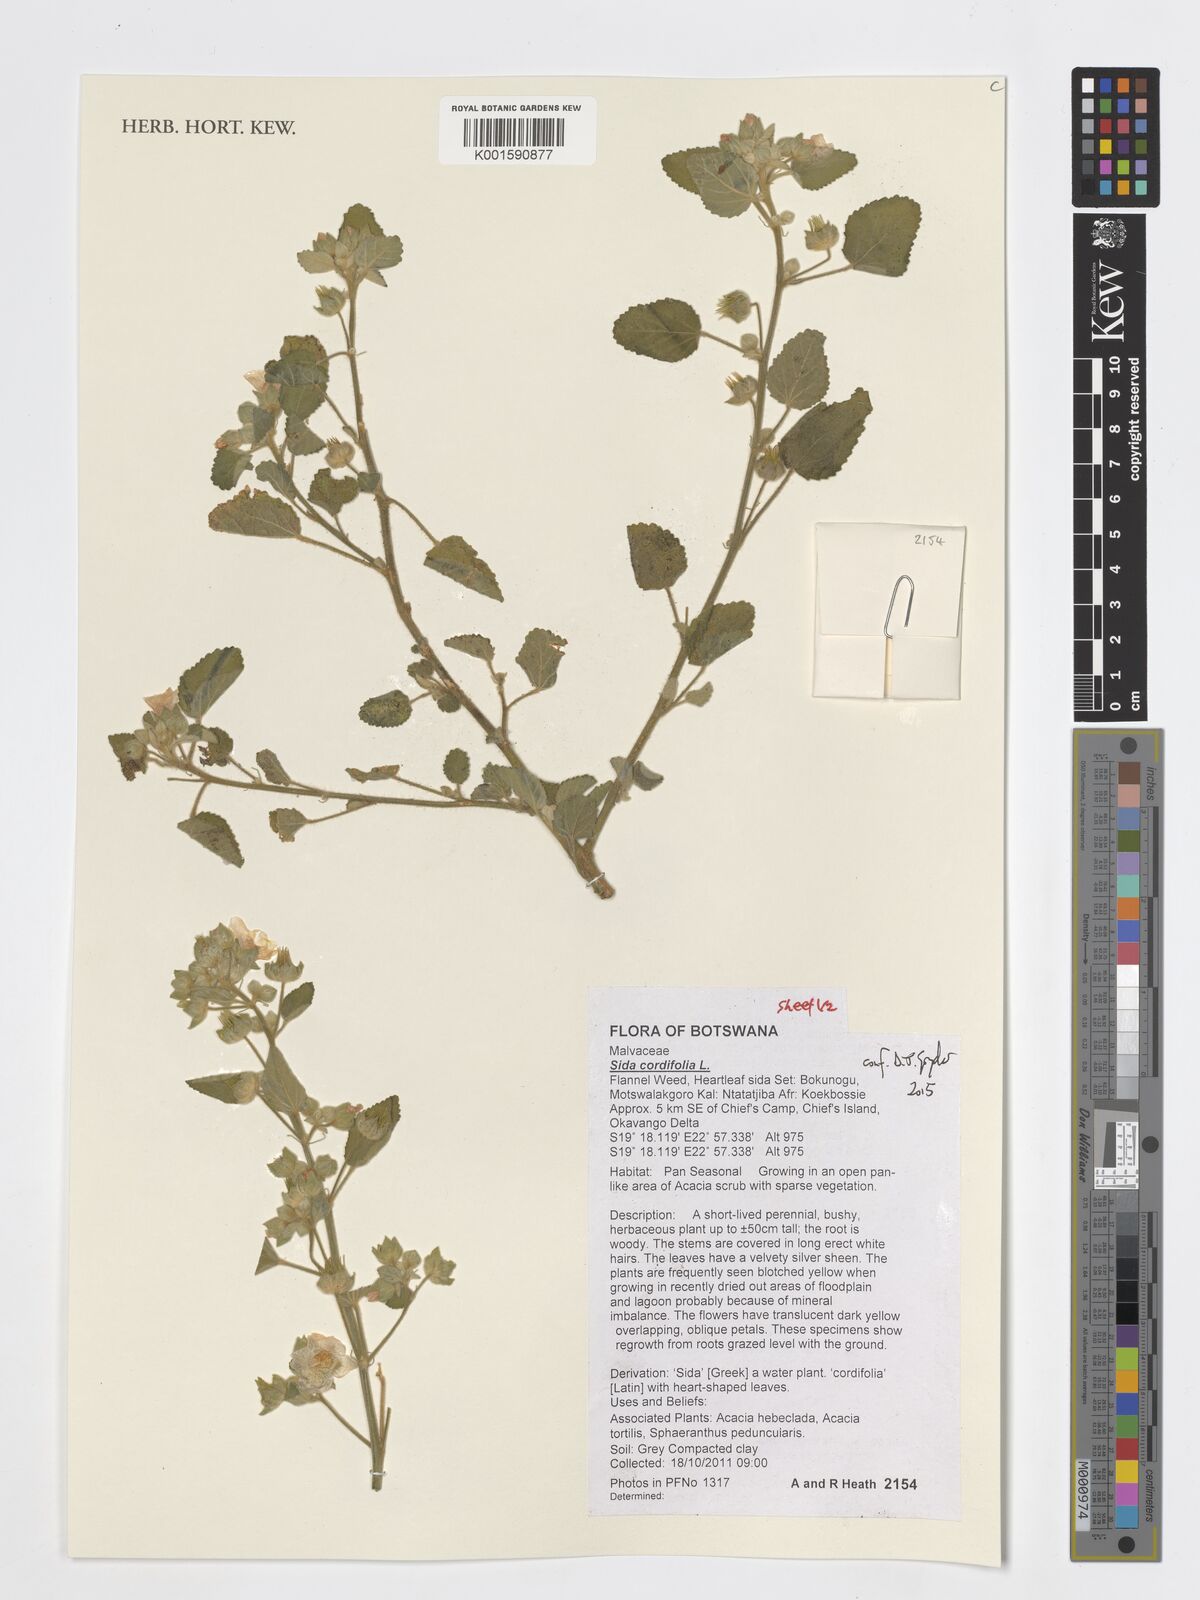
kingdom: Plantae
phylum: Tracheophyta
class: Magnoliopsida
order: Malvales
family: Malvaceae
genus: Sida
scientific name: Sida cordifolia
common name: Ilima
